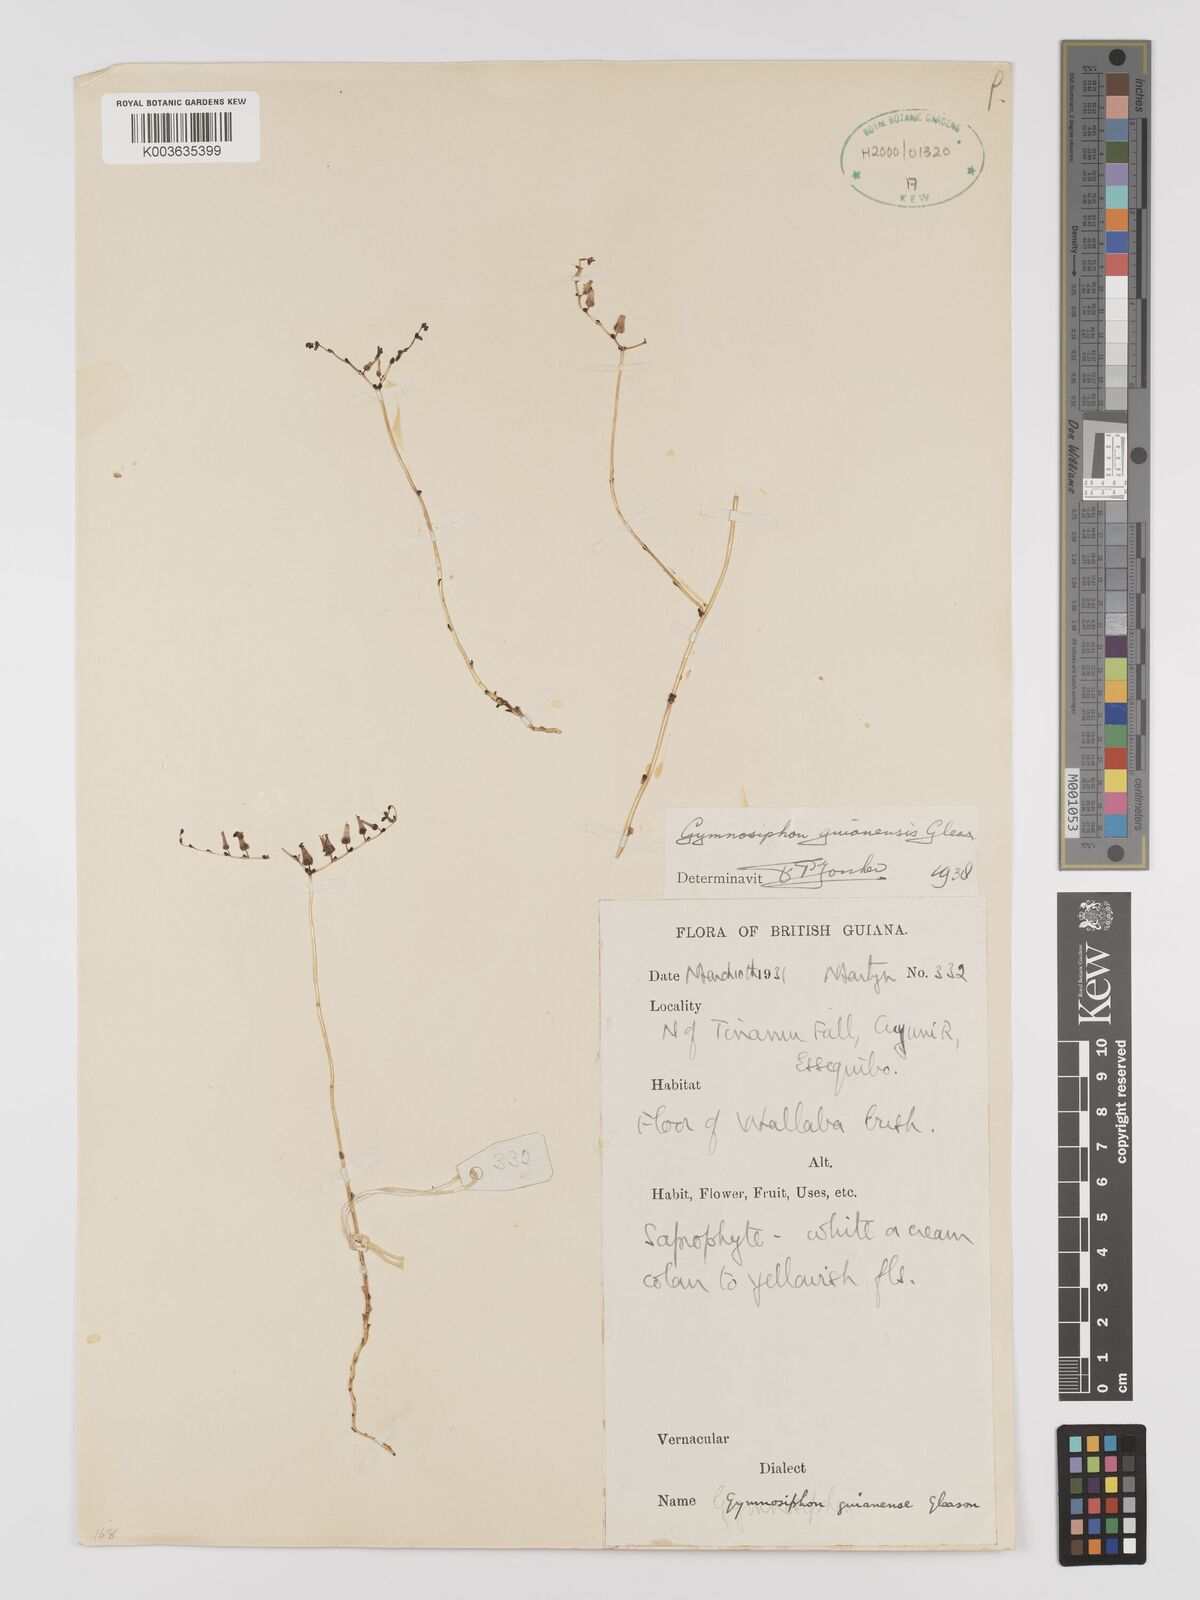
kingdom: Plantae
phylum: Tracheophyta
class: Liliopsida
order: Dioscoreales
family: Burmanniaceae
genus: Gymnosiphon
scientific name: Gymnosiphon guianensis
